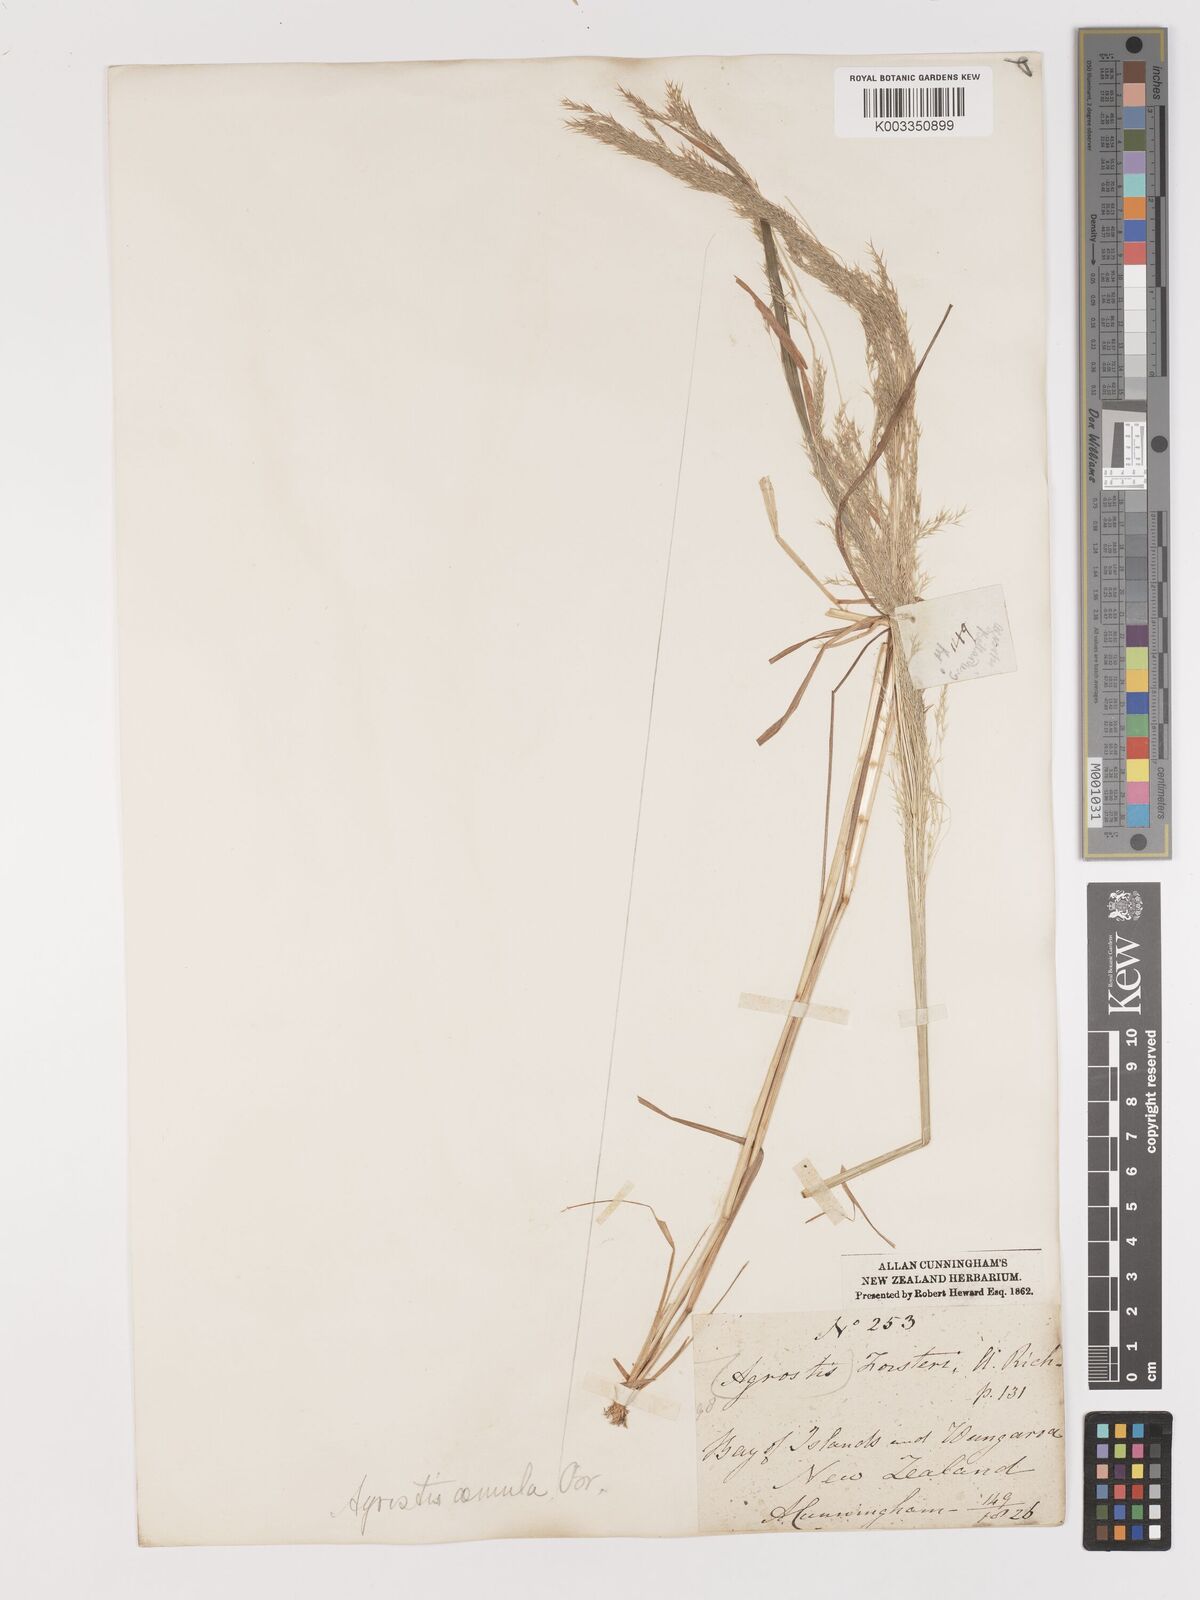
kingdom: Plantae
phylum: Tracheophyta
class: Liliopsida
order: Poales
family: Poaceae
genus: Lachnagrostis
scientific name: Lachnagrostis filiformis
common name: Bentgrass
